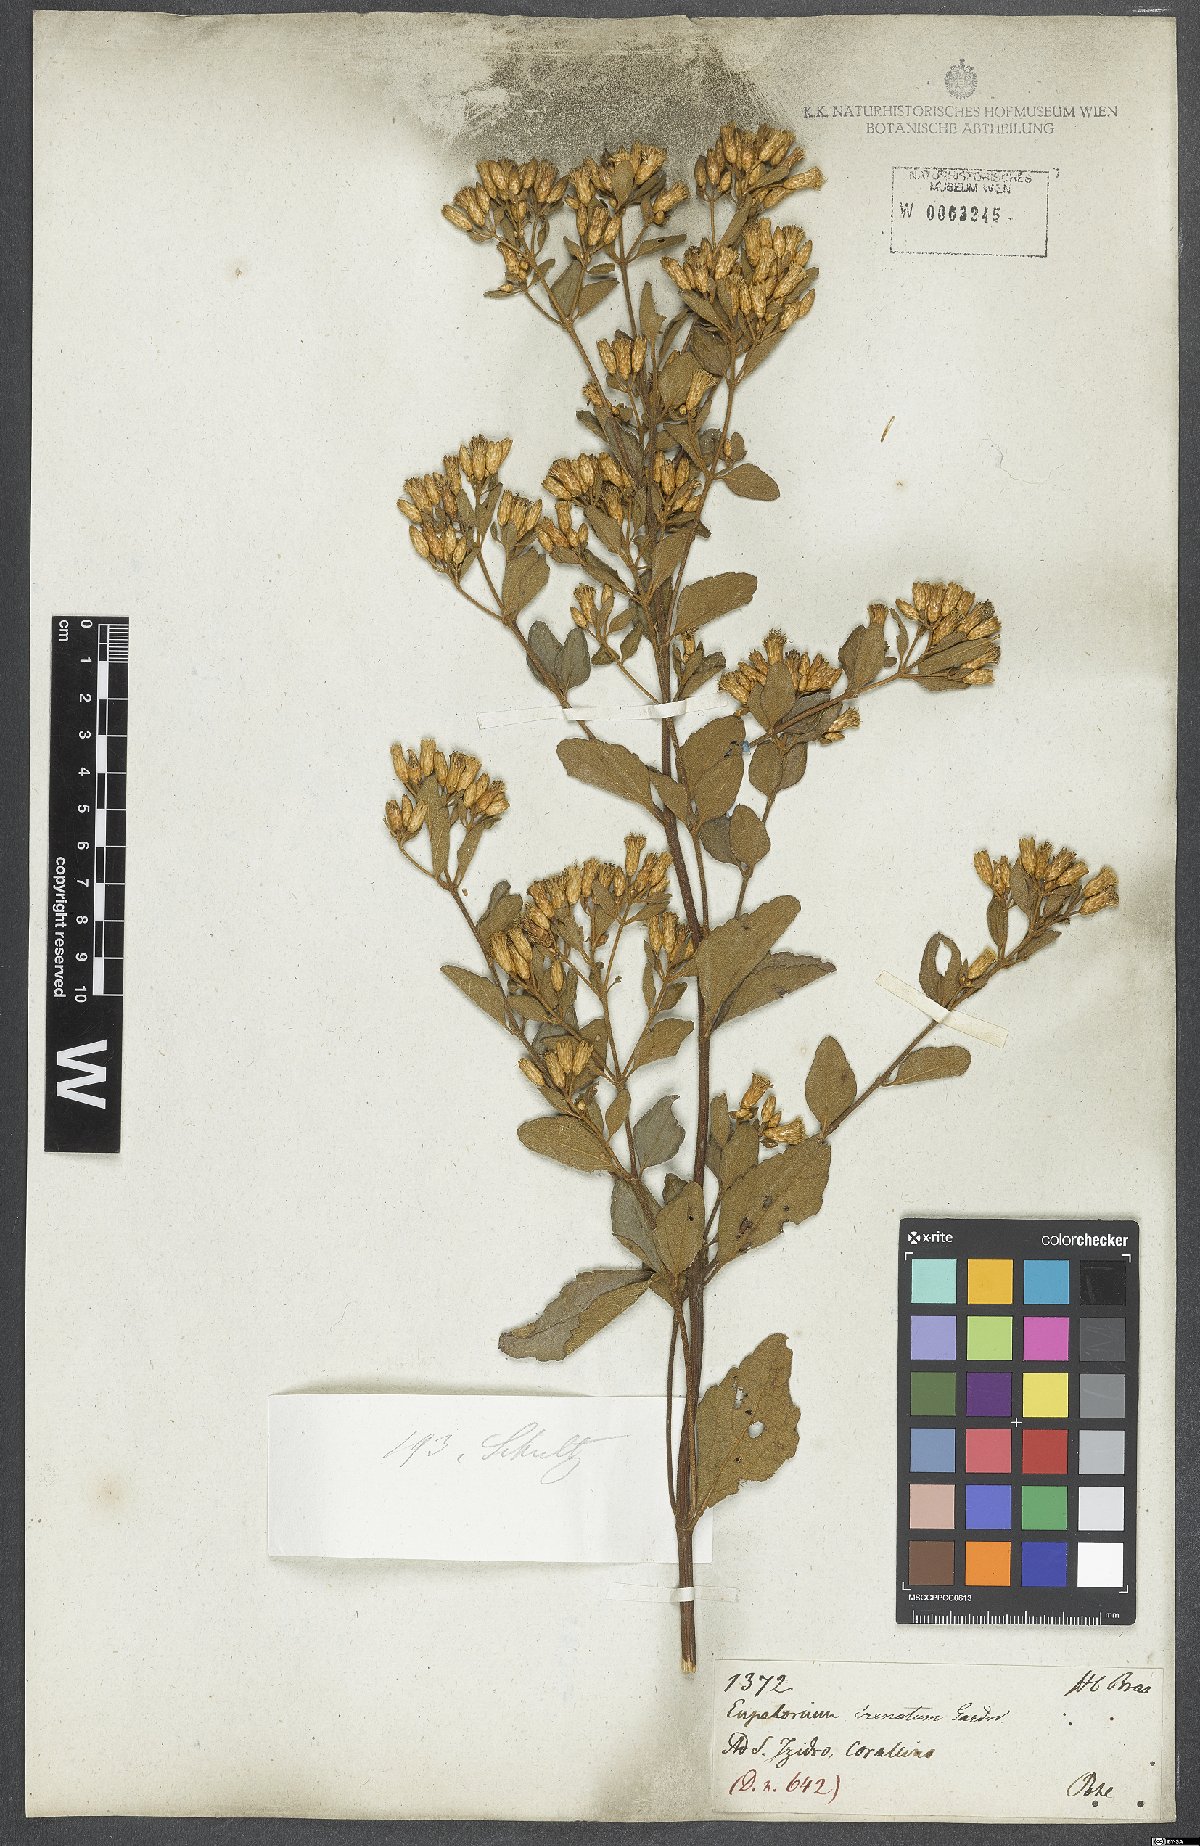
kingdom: Plantae
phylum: Tracheophyta
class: Magnoliopsida
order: Asterales
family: Asteraceae
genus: Chromolaena
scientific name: Chromolaena squalida
